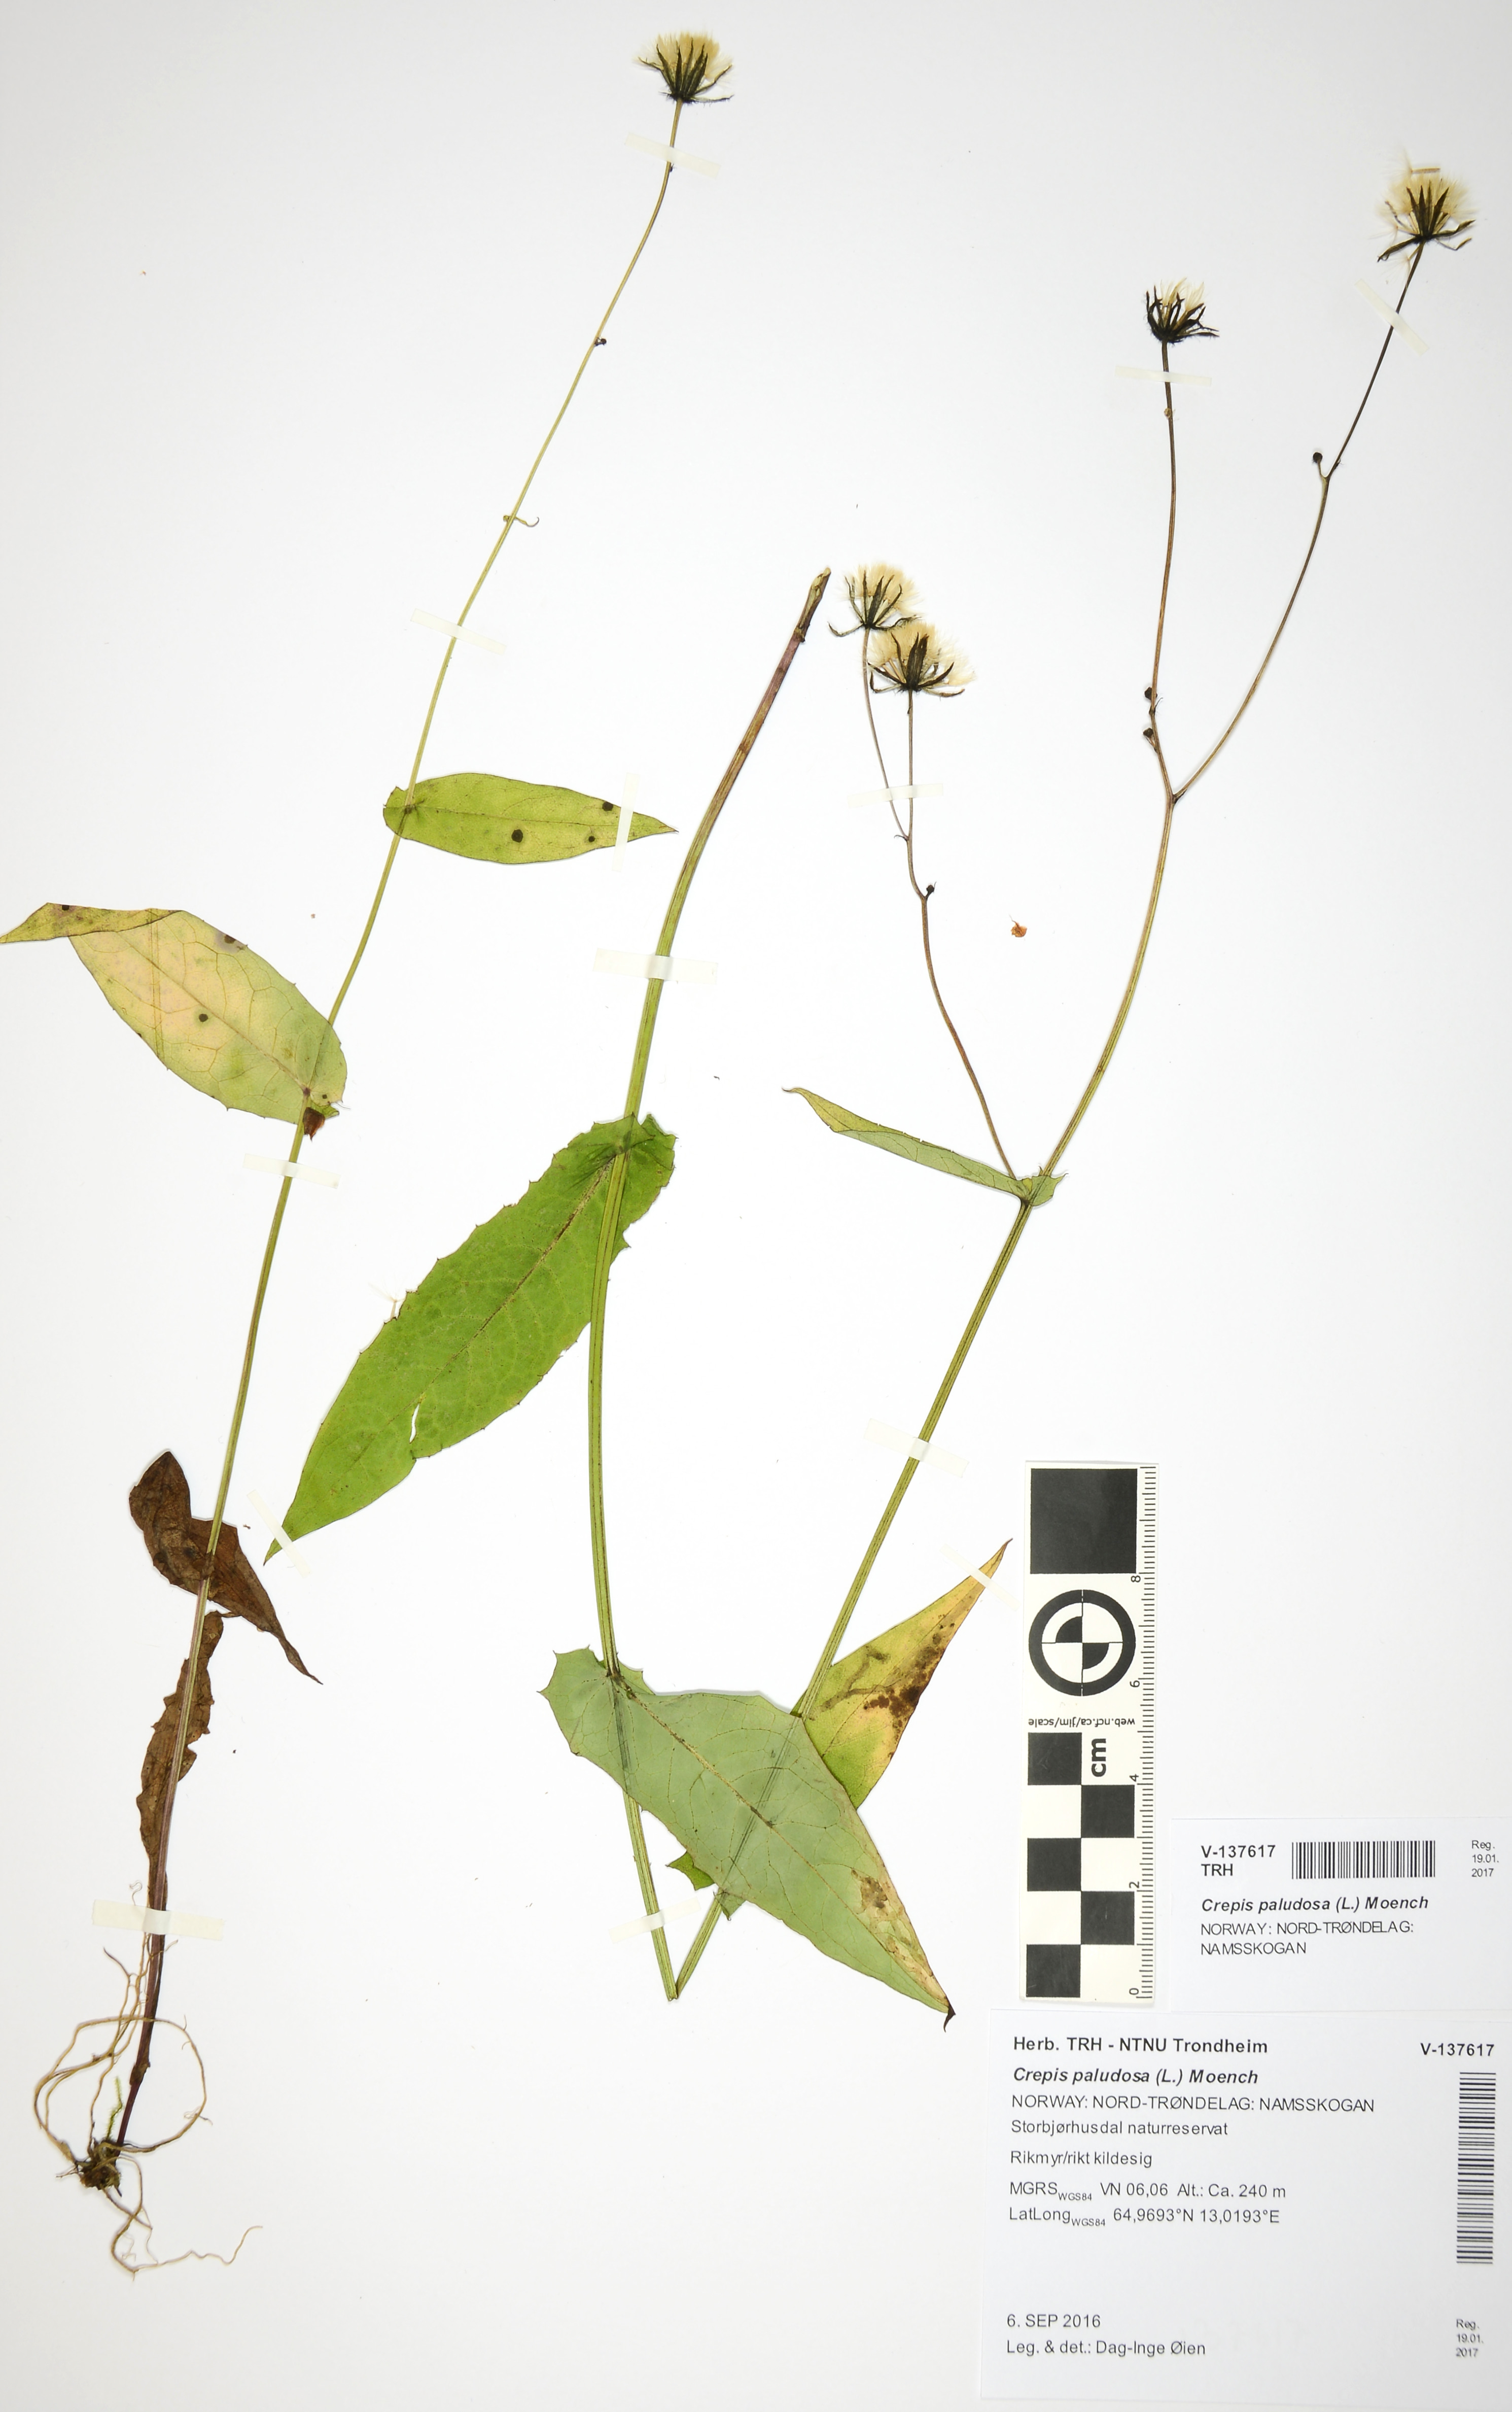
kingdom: Plantae
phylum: Tracheophyta
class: Magnoliopsida
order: Asterales
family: Asteraceae
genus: Crepis
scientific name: Crepis paludosa
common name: Marsh hawk's-beard
